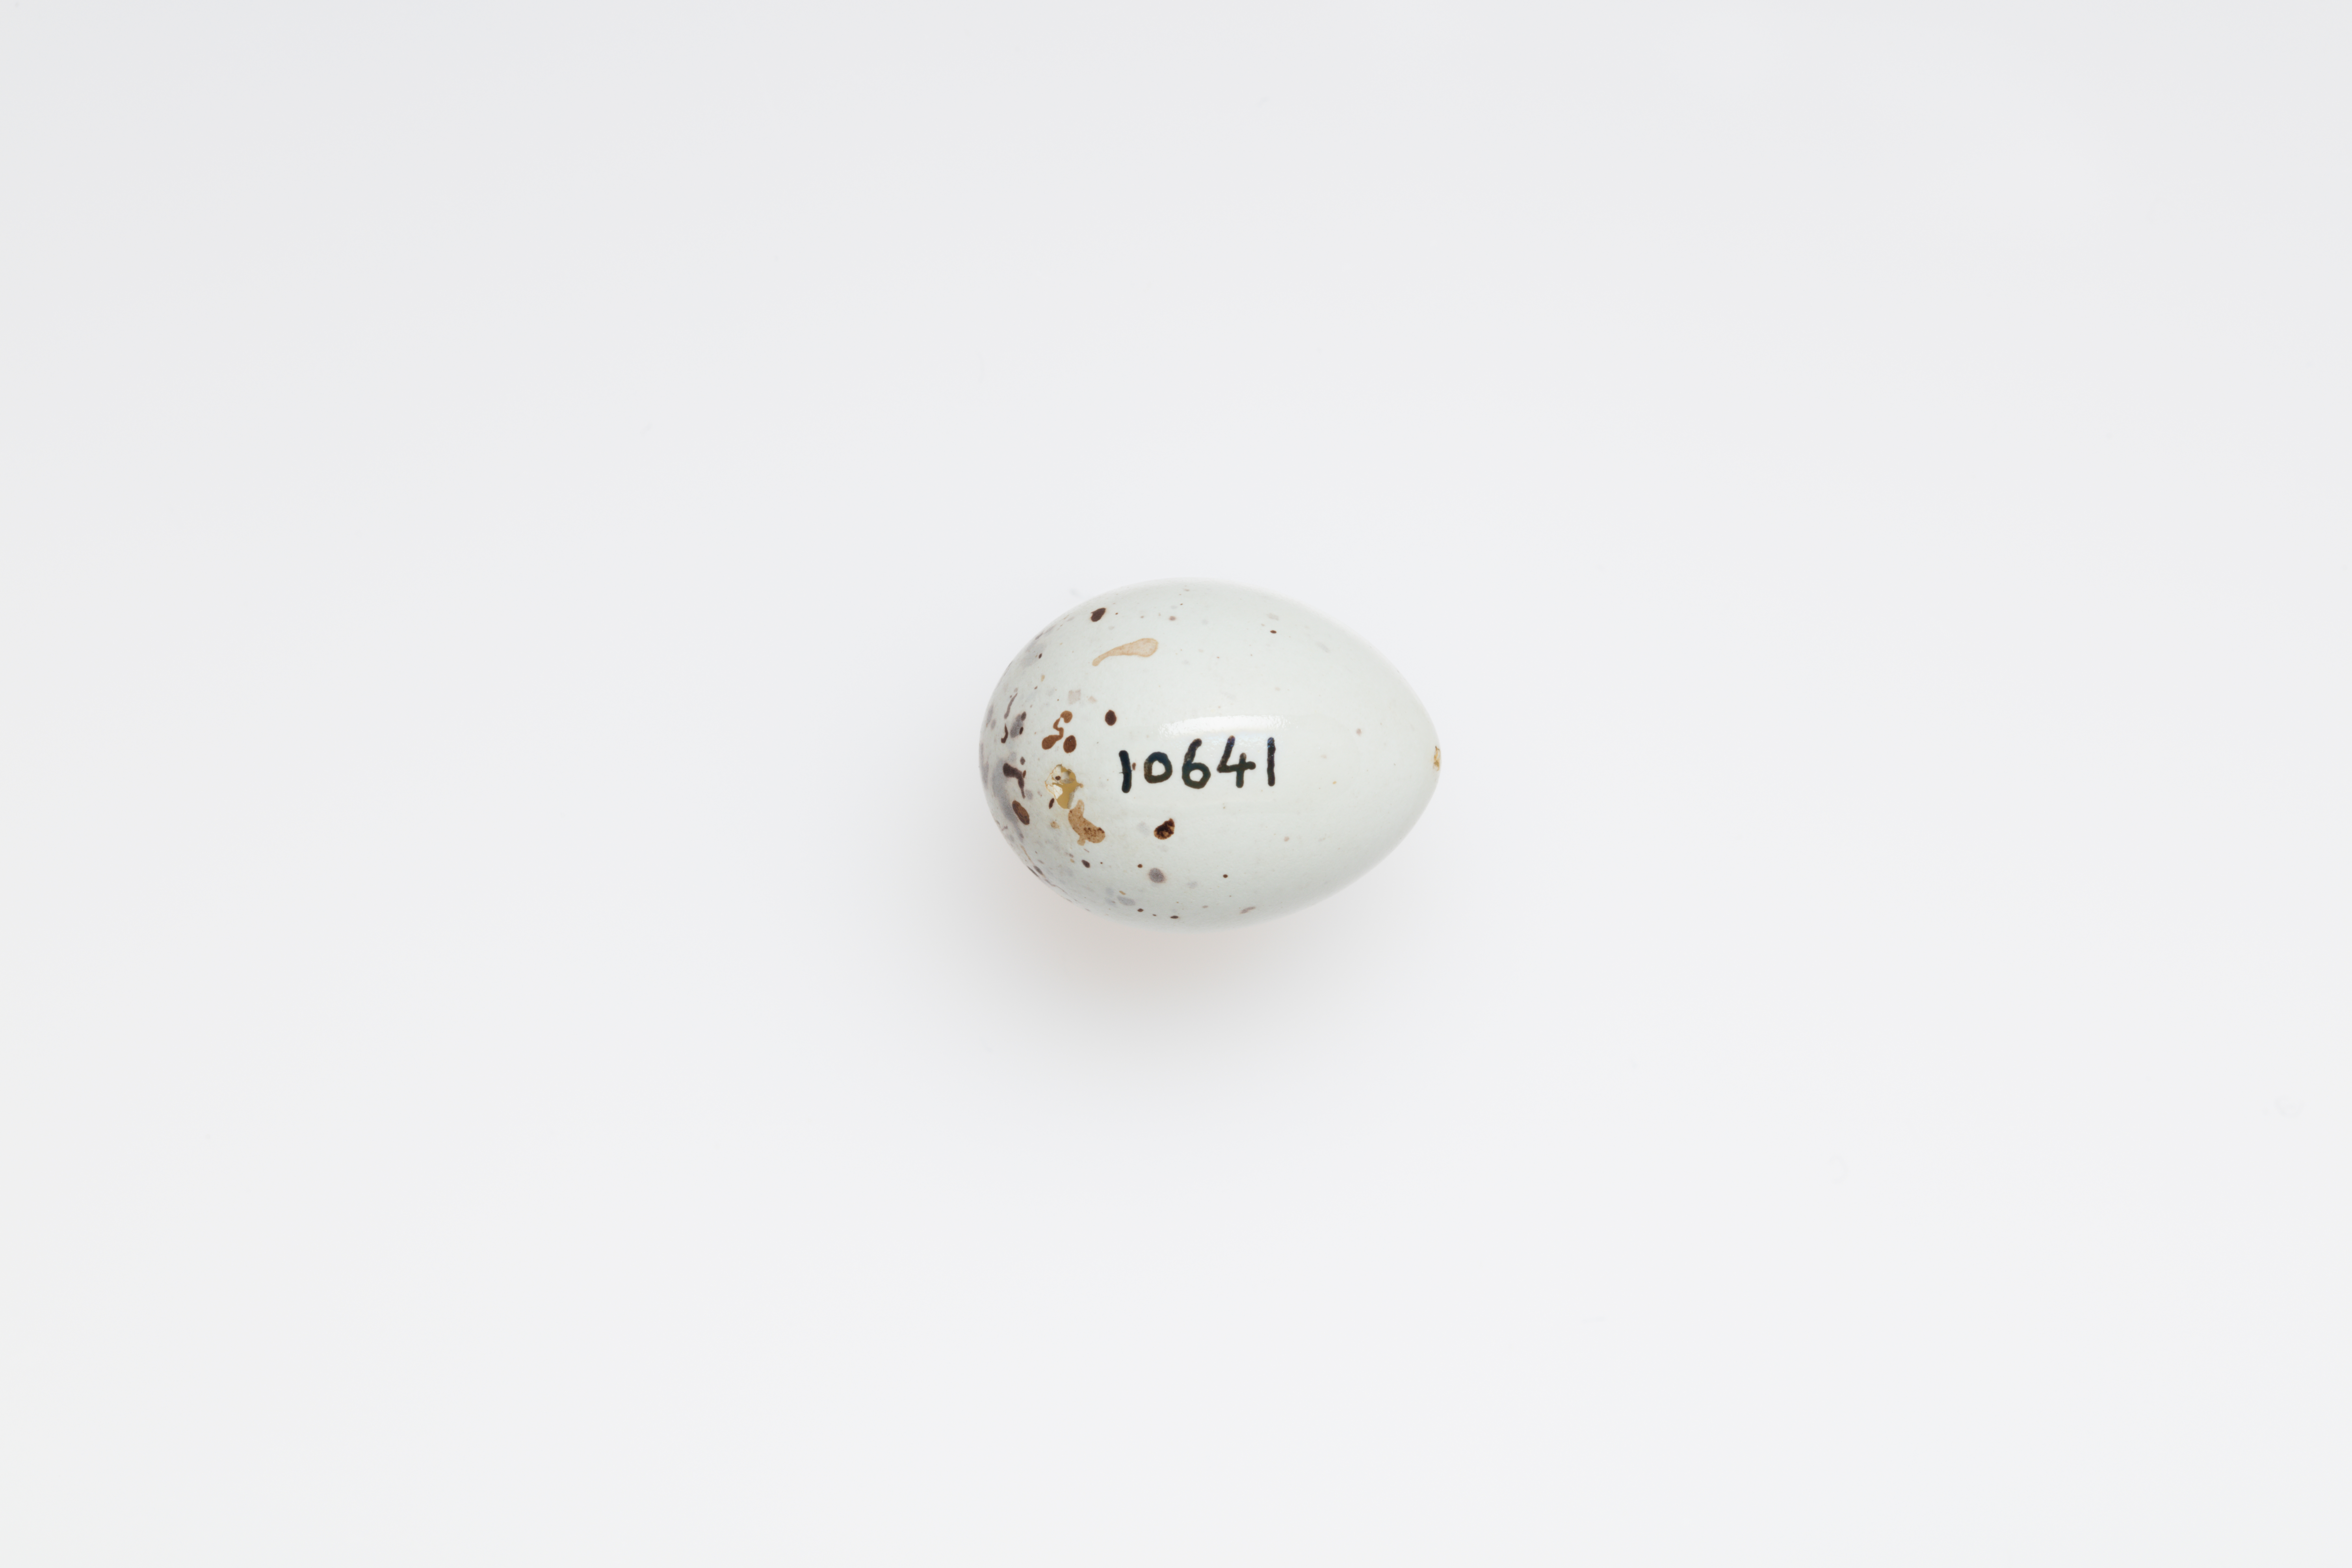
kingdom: Animalia
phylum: Chordata
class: Aves
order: Passeriformes
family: Fringillidae
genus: Pyrrhula
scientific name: Pyrrhula pyrrhula
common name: Eurasian bullfinch
